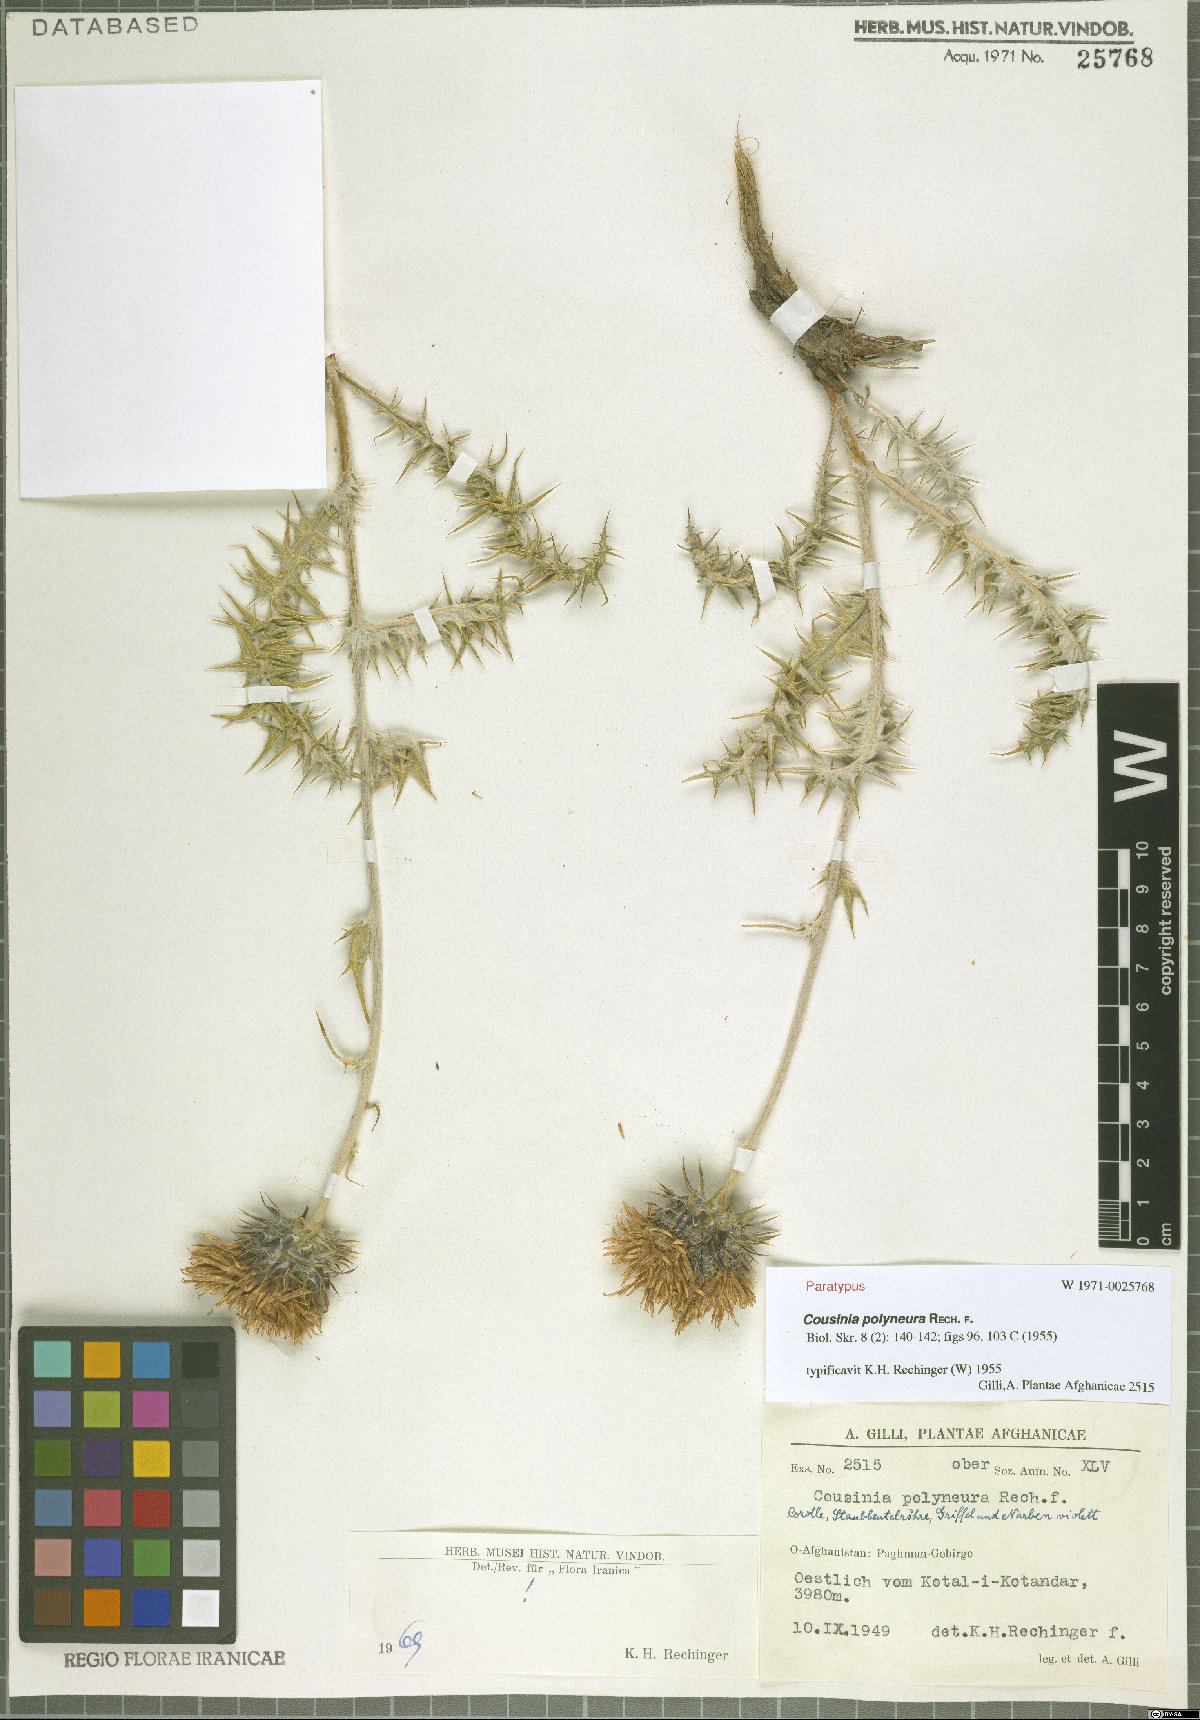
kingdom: Plantae
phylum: Tracheophyta
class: Magnoliopsida
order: Asterales
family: Asteraceae
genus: Cousinia
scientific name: Cousinia polyneura
